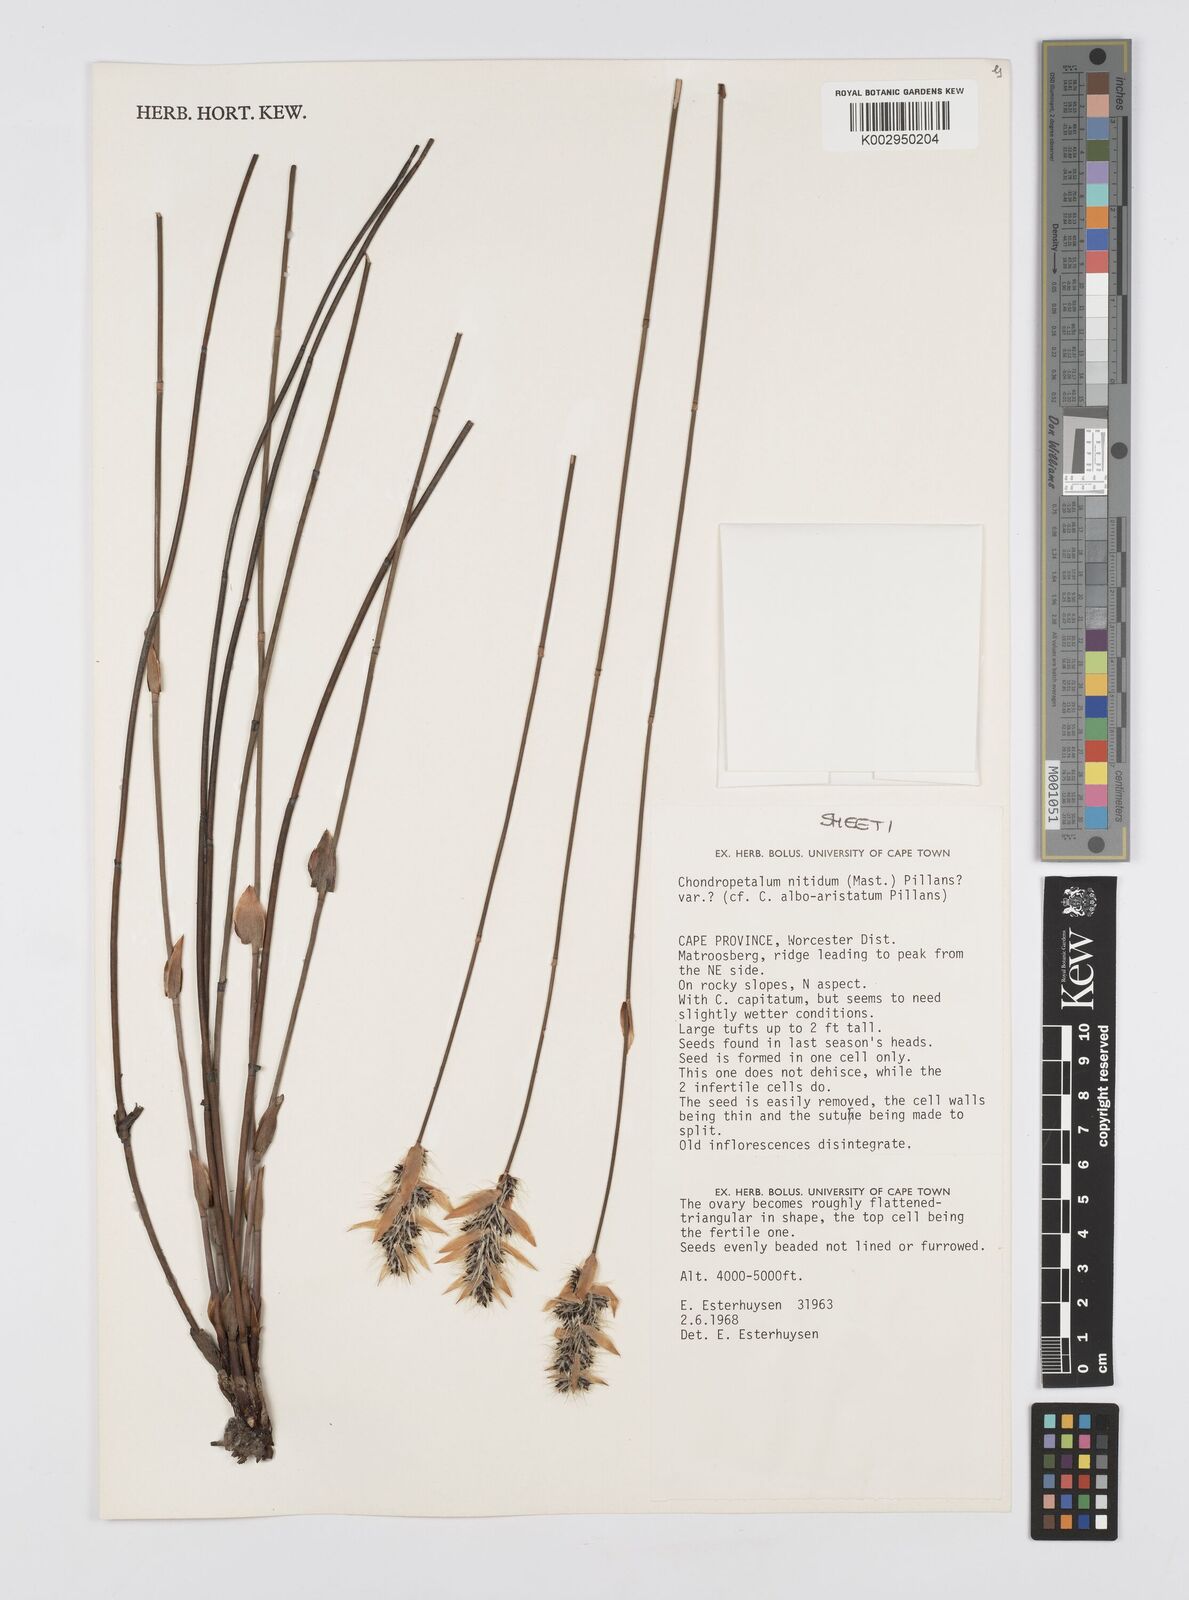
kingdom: Plantae
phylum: Tracheophyta
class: Liliopsida
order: Poales
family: Restionaceae
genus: Askidiosperma
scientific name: Askidiosperma nitidum
